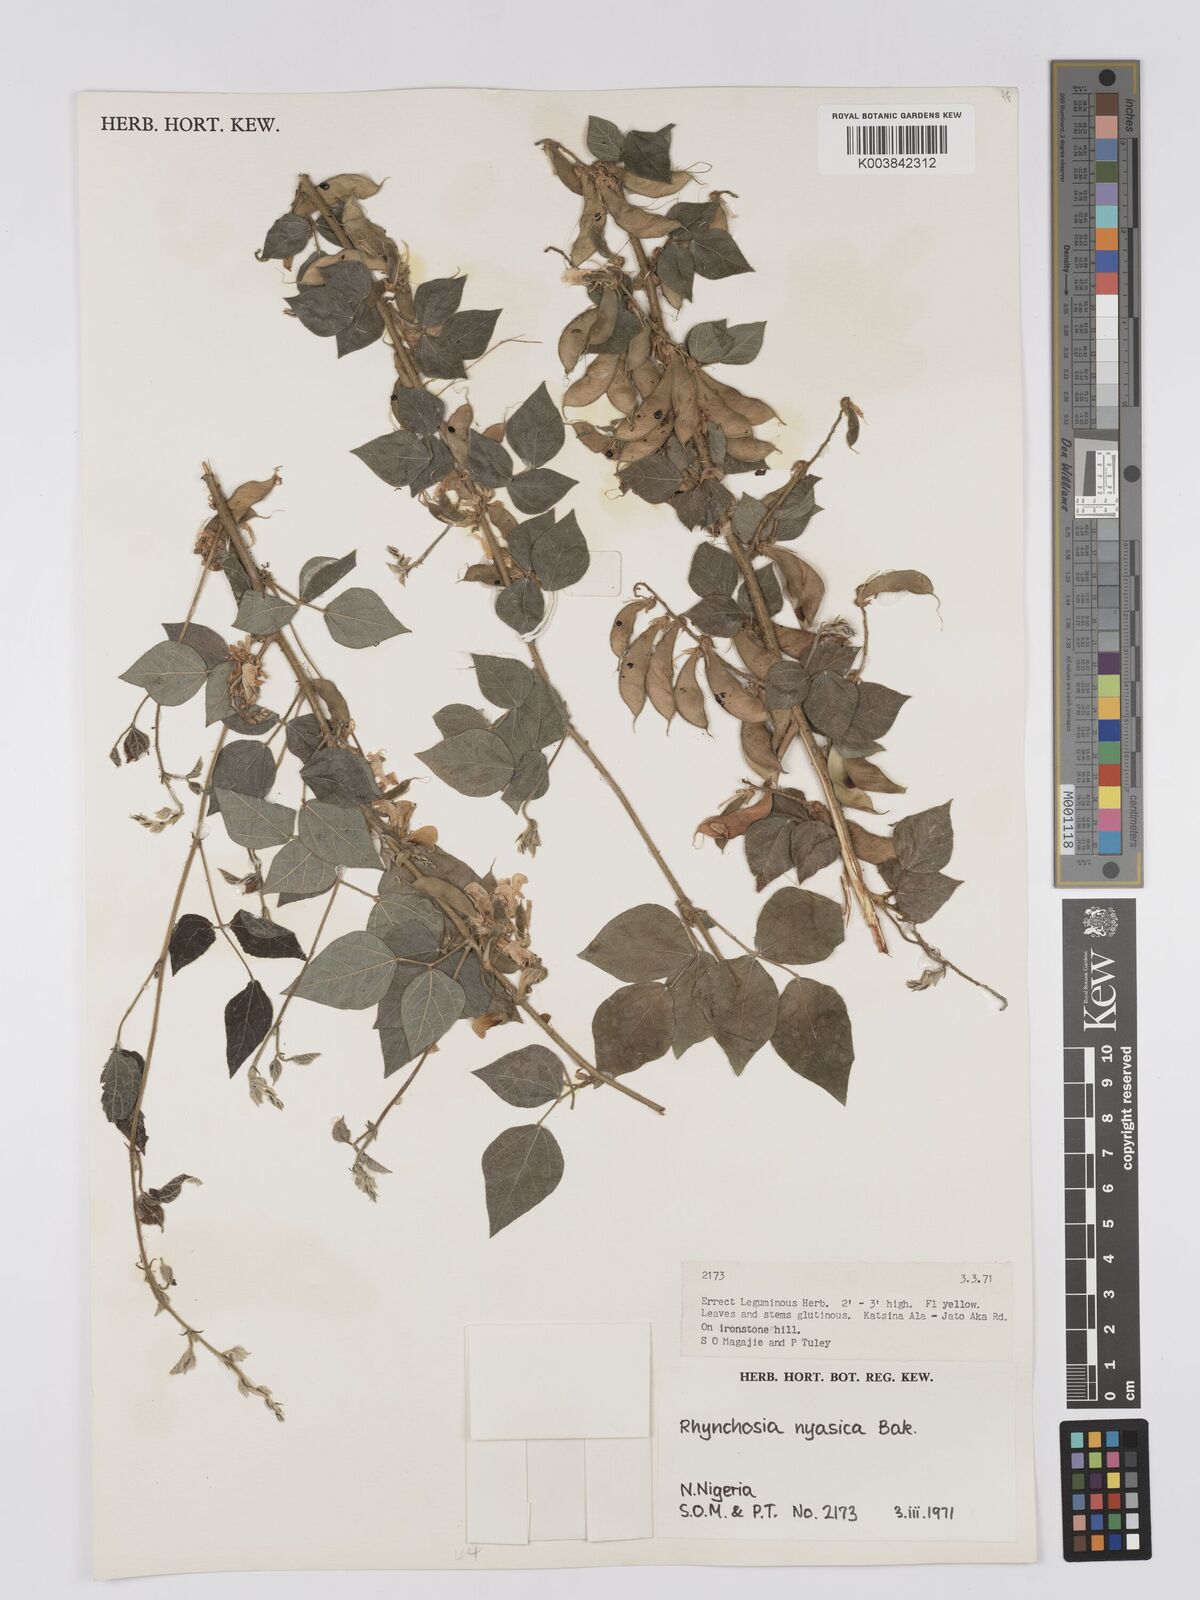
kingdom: Plantae
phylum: Tracheophyta
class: Magnoliopsida
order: Fabales
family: Fabaceae
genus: Rhynchosia
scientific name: Rhynchosia nyasica
